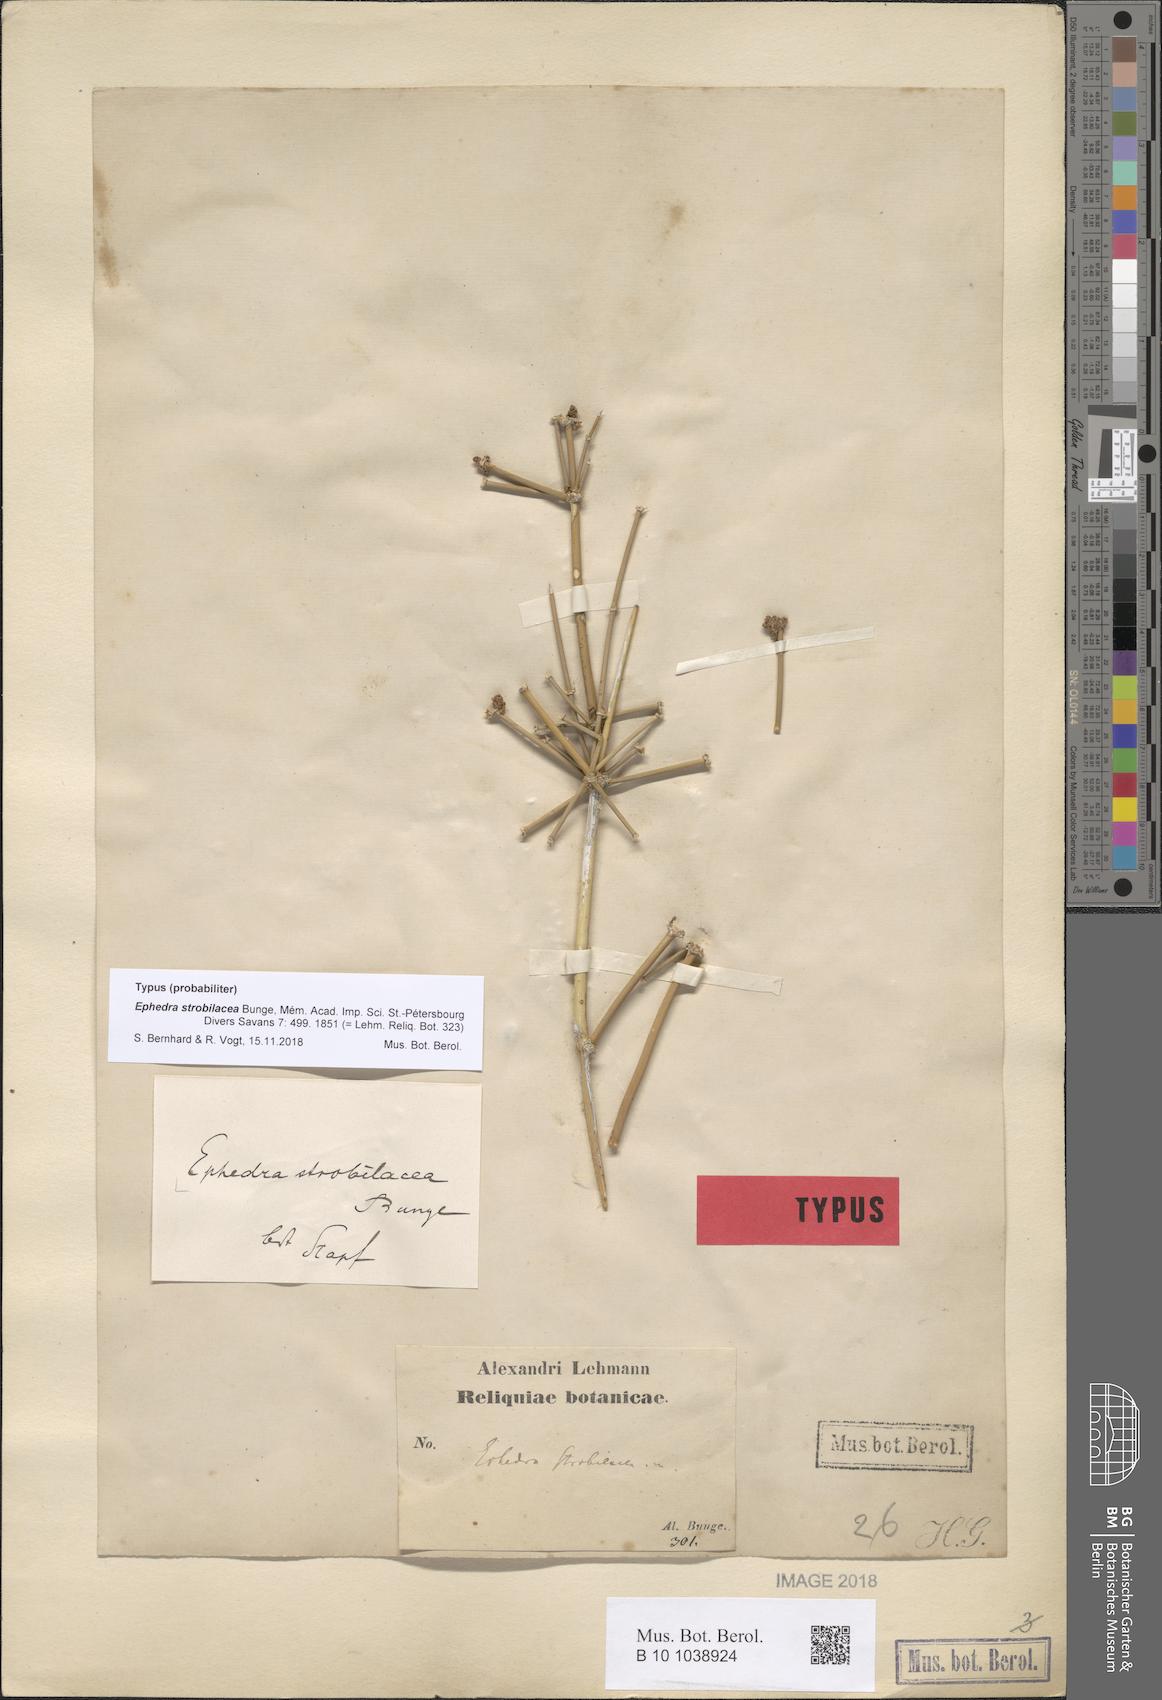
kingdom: Plantae
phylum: Tracheophyta
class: Gnetopsida
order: Ephedrales
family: Ephedraceae
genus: Ephedra
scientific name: Ephedra strobilacea
